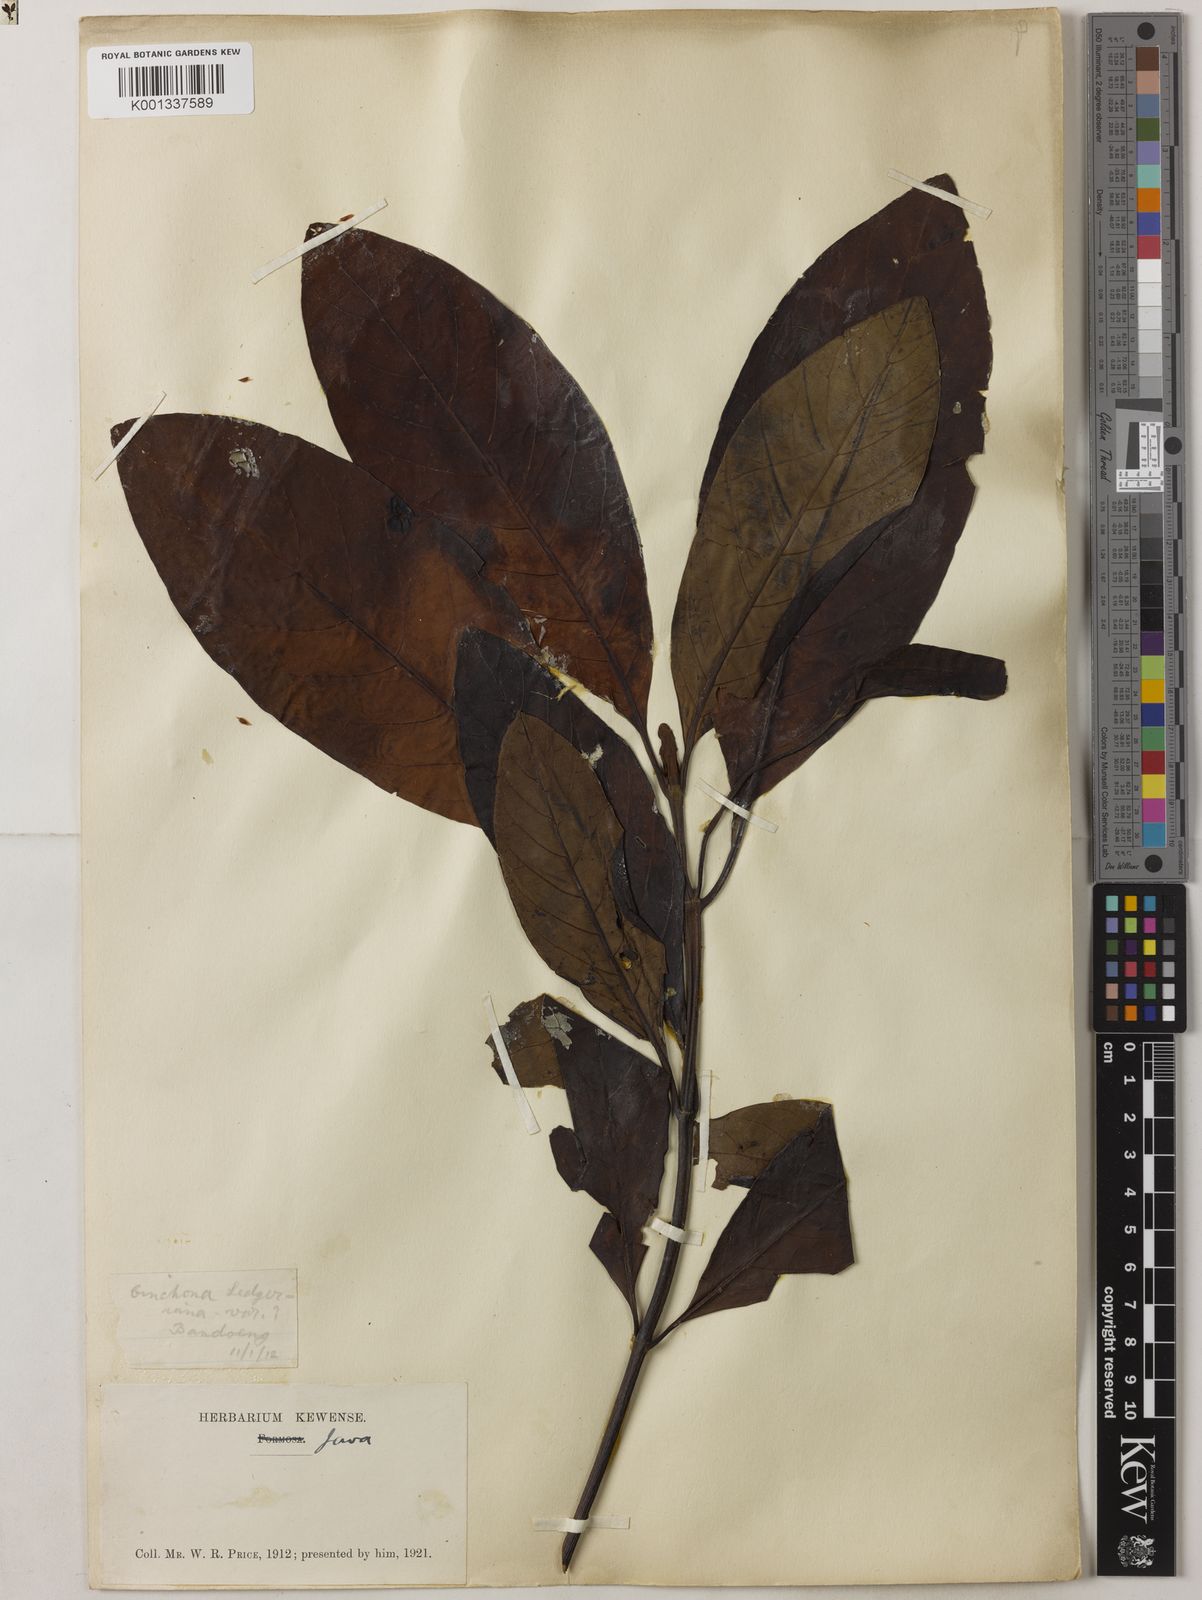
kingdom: Plantae
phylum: Tracheophyta
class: Magnoliopsida
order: Gentianales
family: Rubiaceae
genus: Cinchona
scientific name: Cinchona calisaya
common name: Ledgerbark
